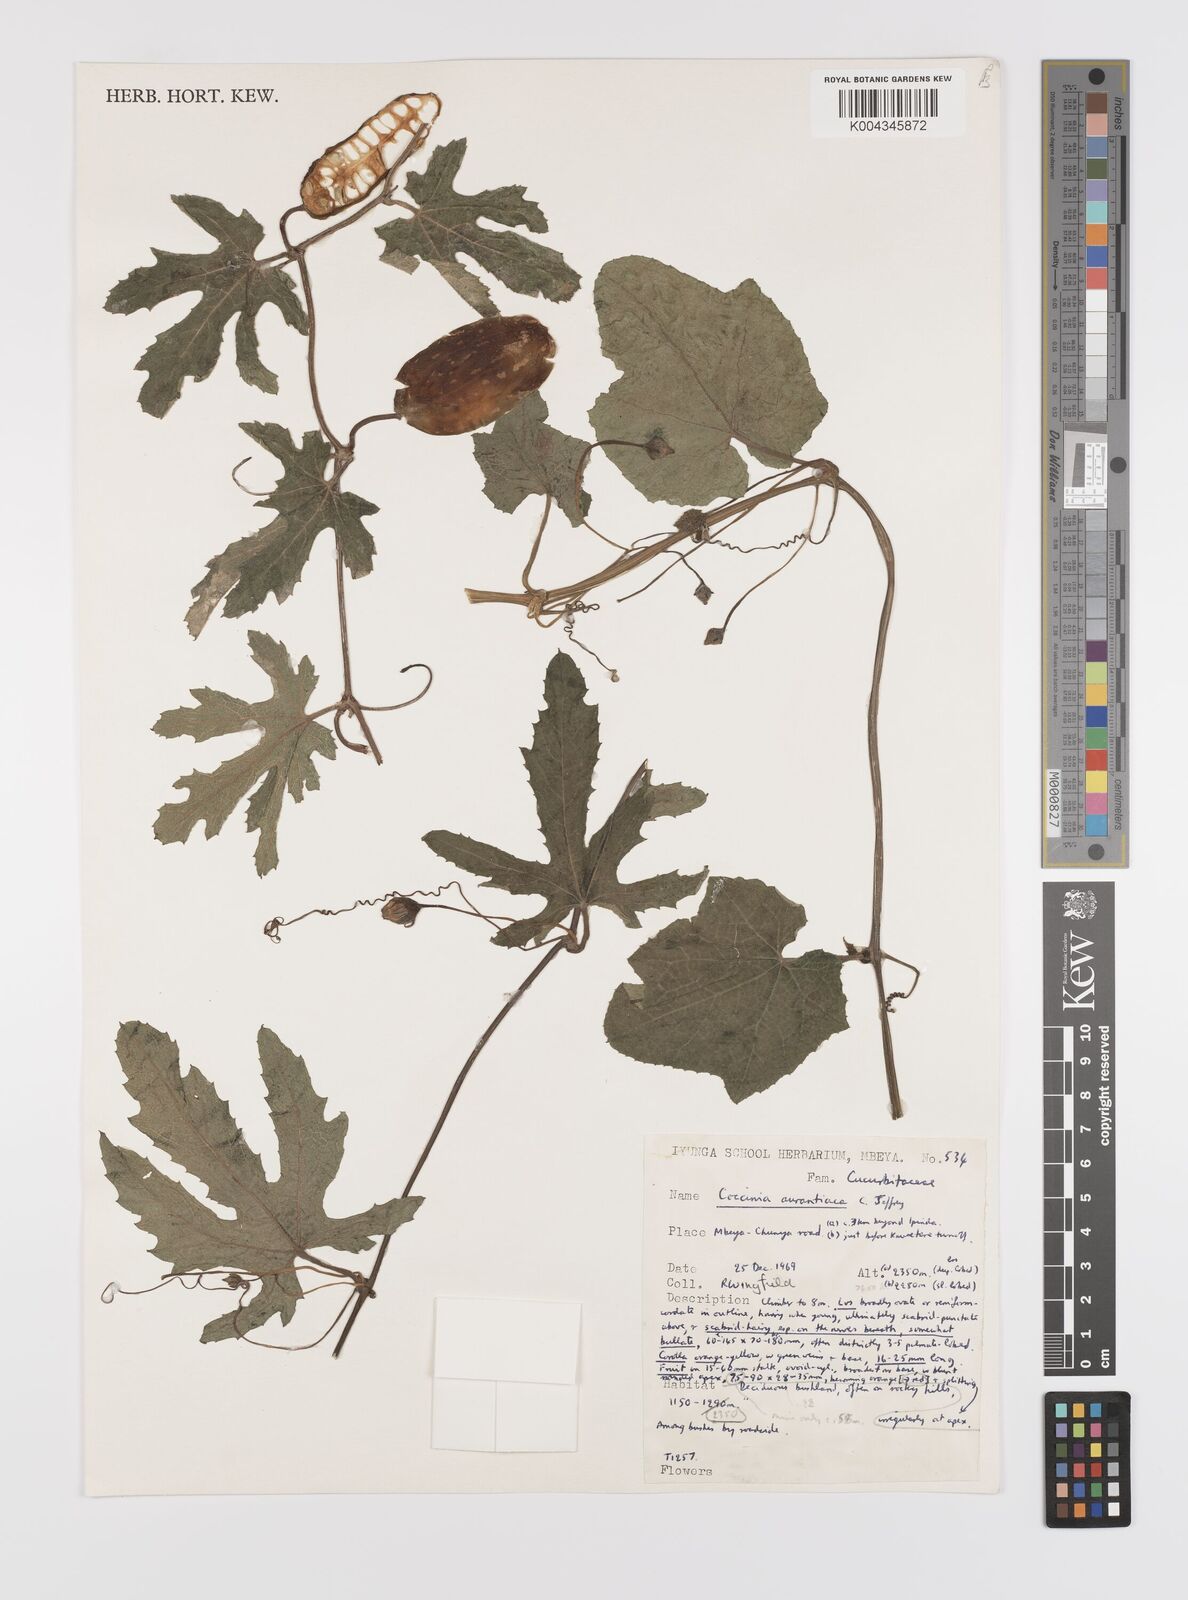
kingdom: Plantae
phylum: Tracheophyta
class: Magnoliopsida
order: Cucurbitales
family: Cucurbitaceae
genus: Coccinia
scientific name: Coccinia adoensis
